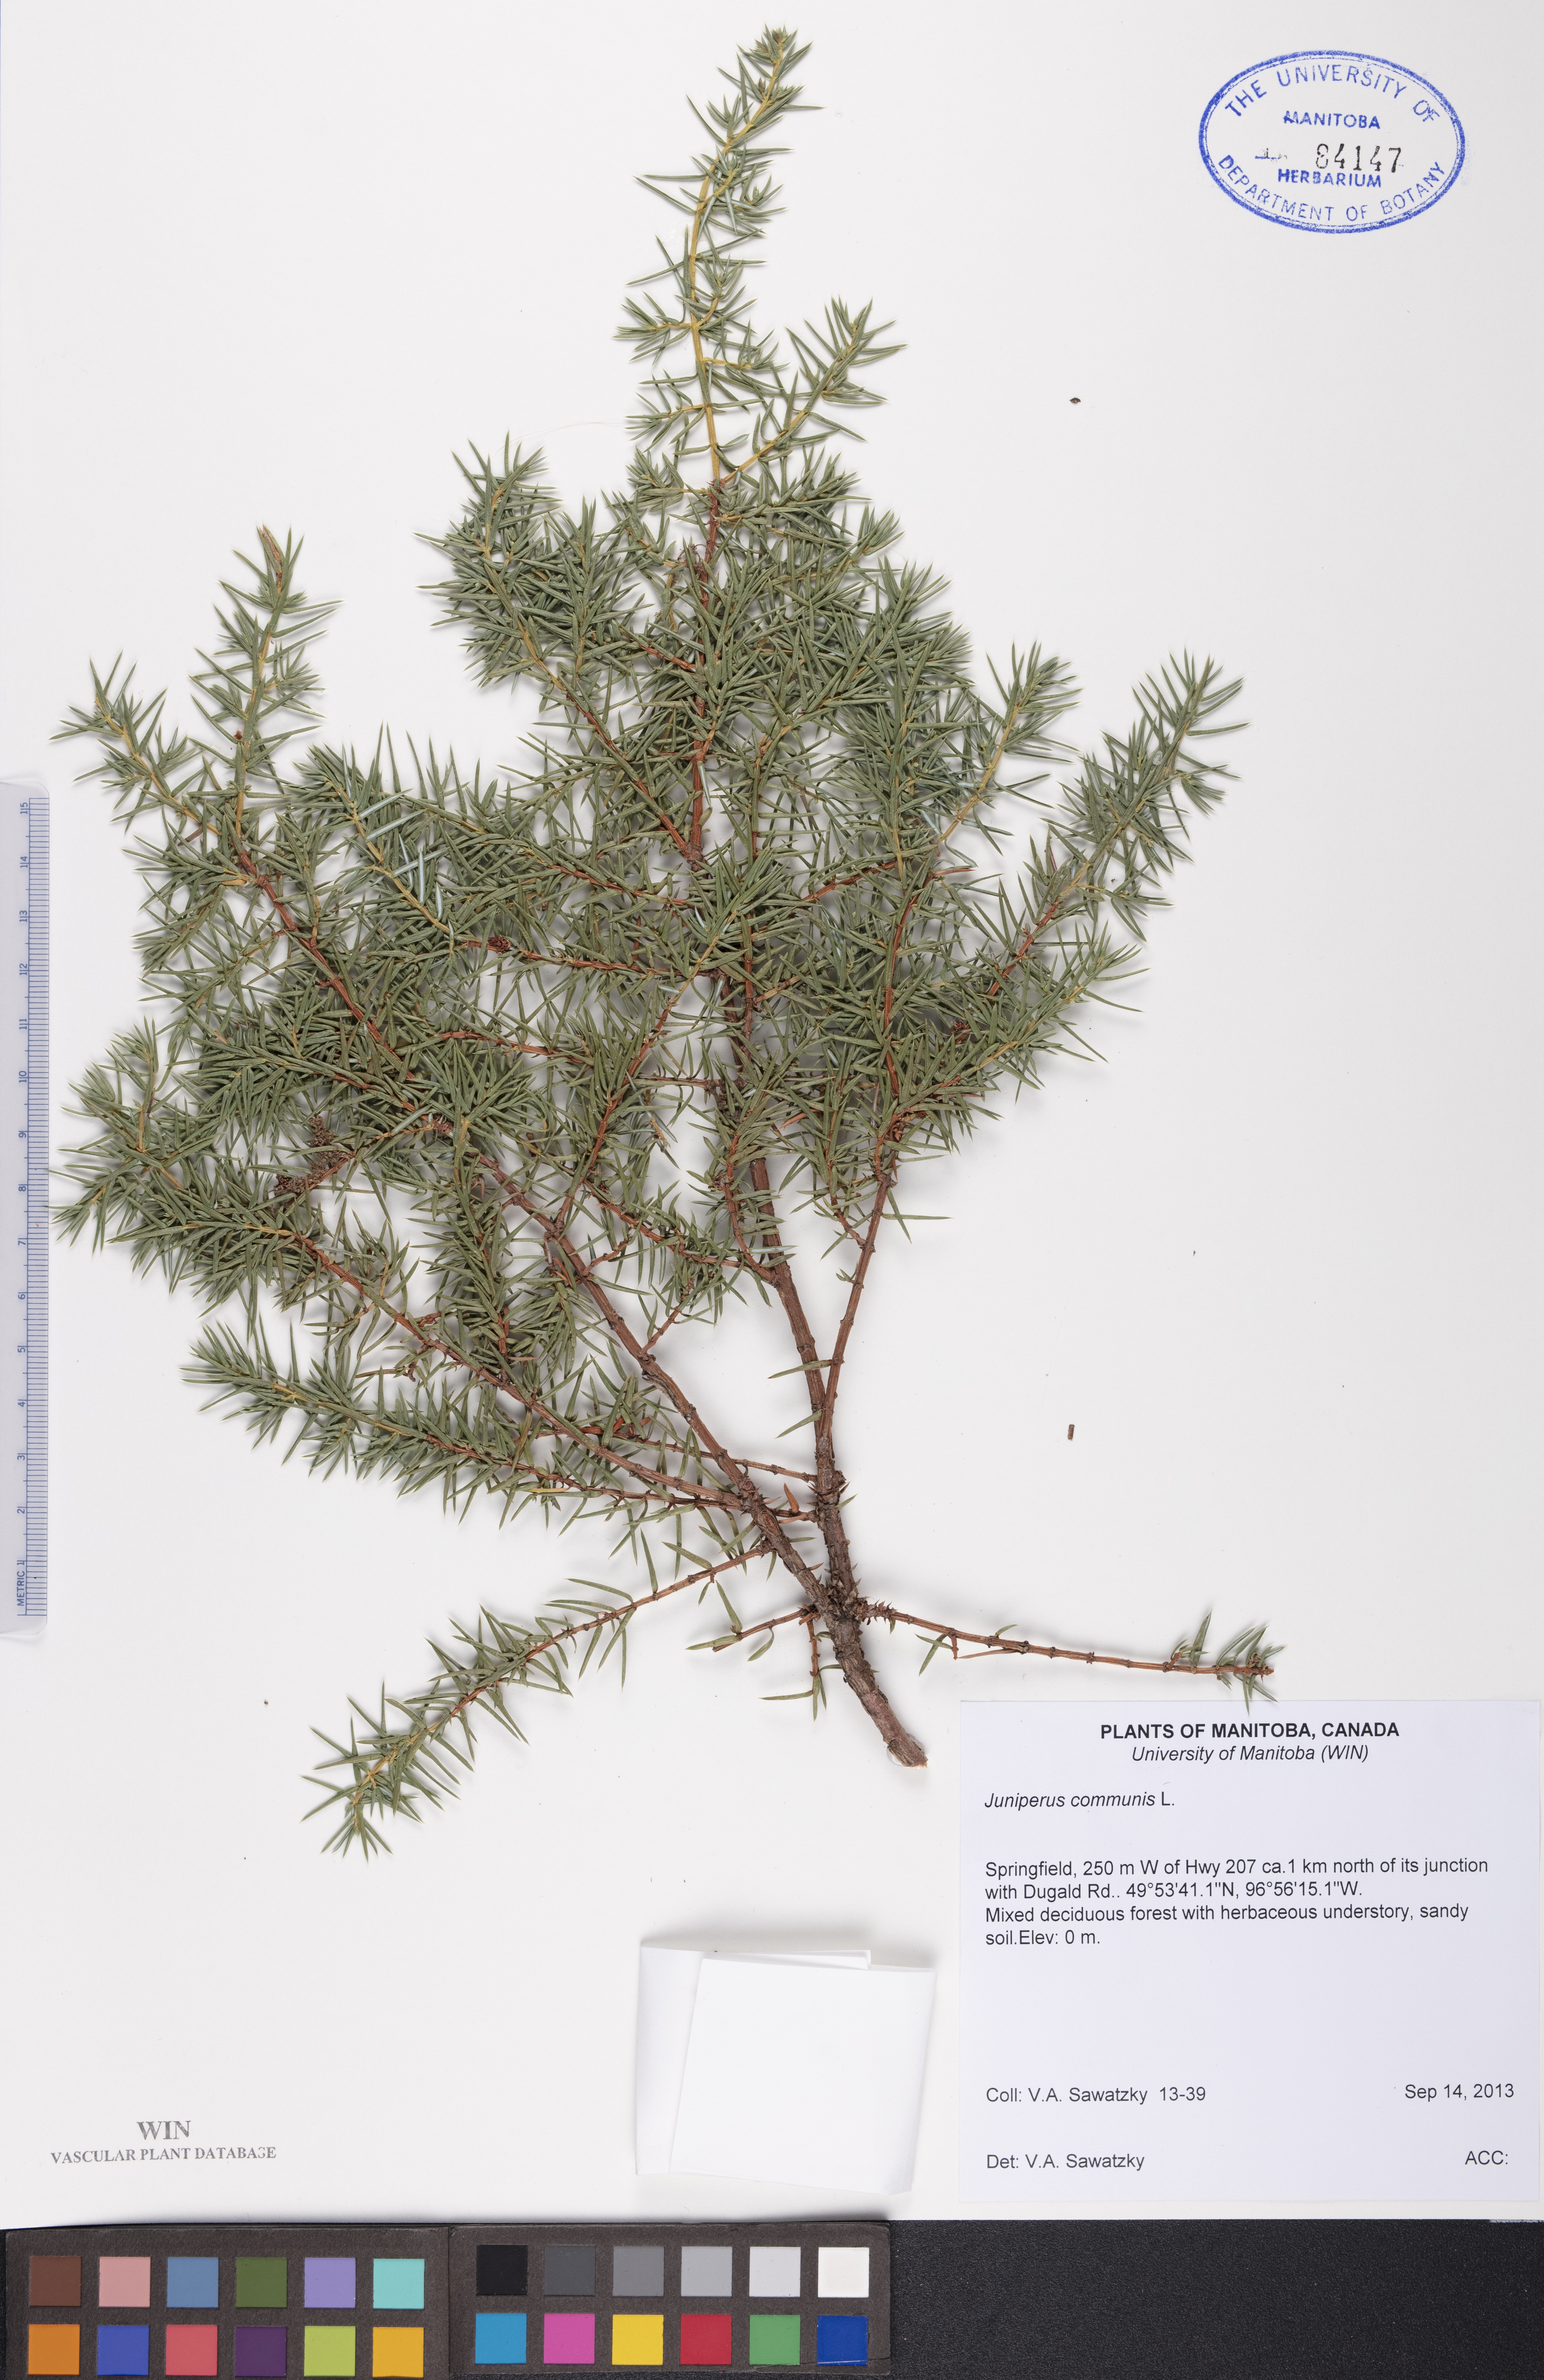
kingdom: Plantae
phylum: Tracheophyta
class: Pinopsida
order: Pinales
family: Cupressaceae
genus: Juniperus
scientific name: Juniperus communis
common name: Common juniper
